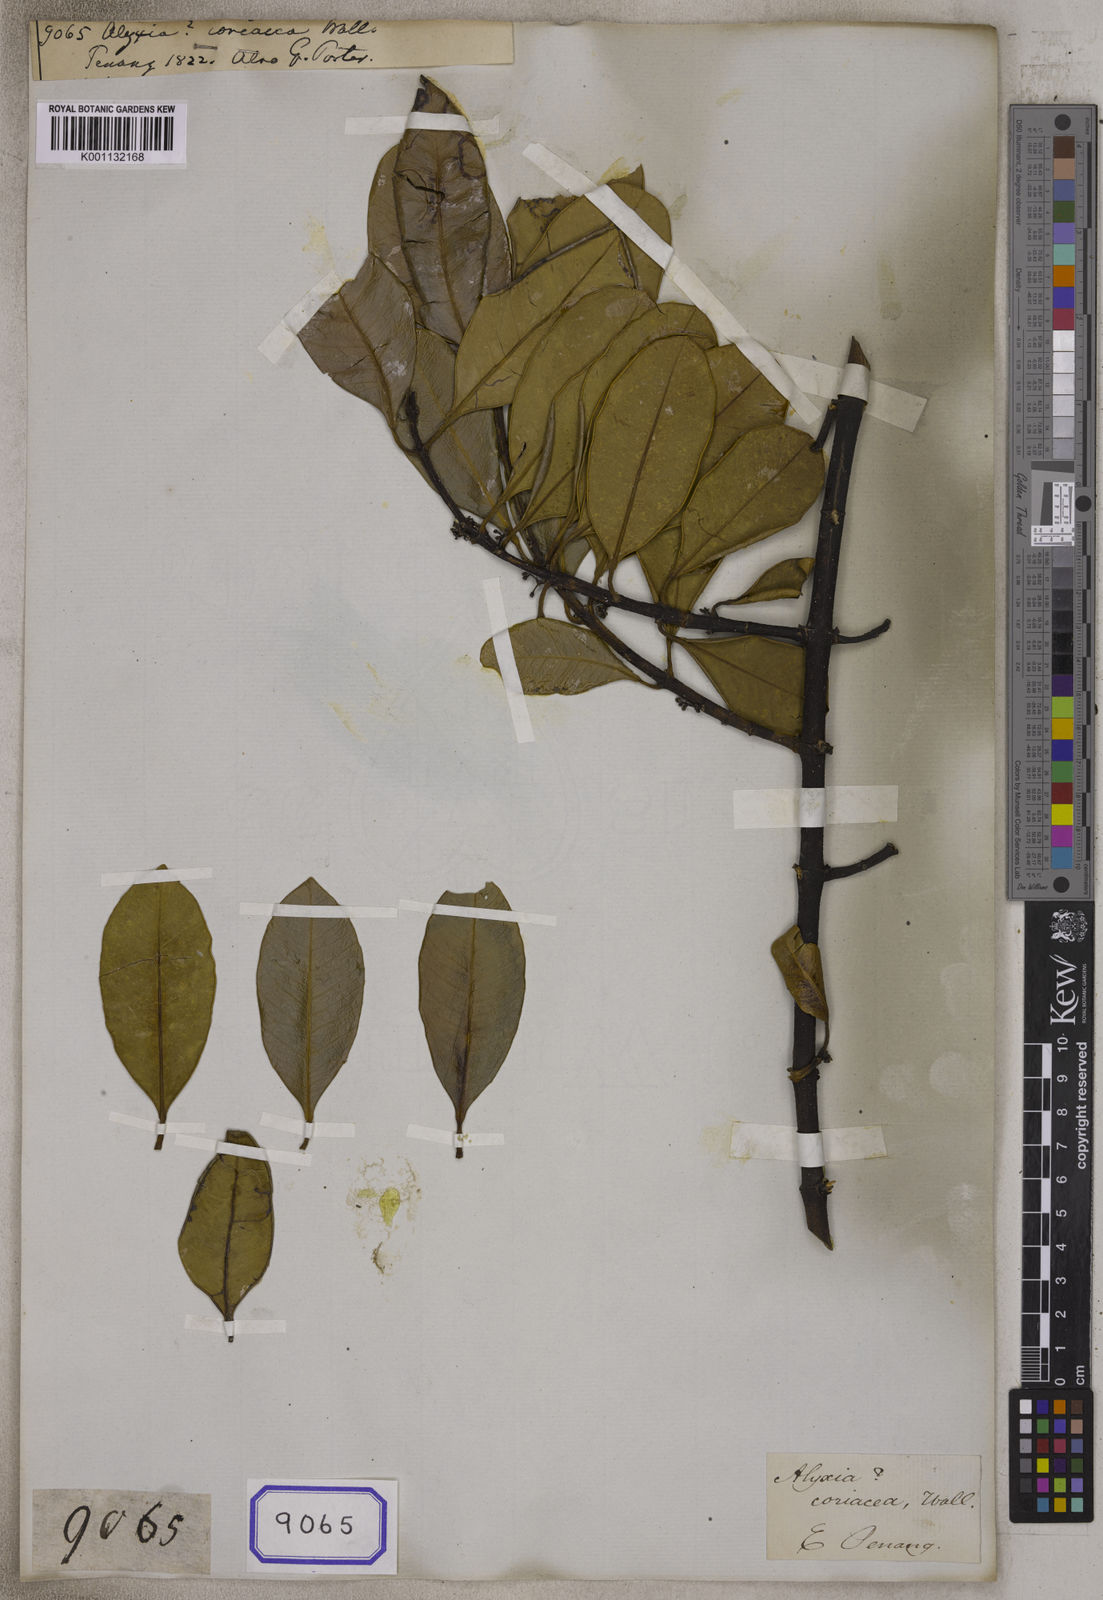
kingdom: Plantae
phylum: Tracheophyta
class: Magnoliopsida
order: Gentianales
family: Apocynaceae
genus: Melodinus
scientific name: Melodinus orientalis
